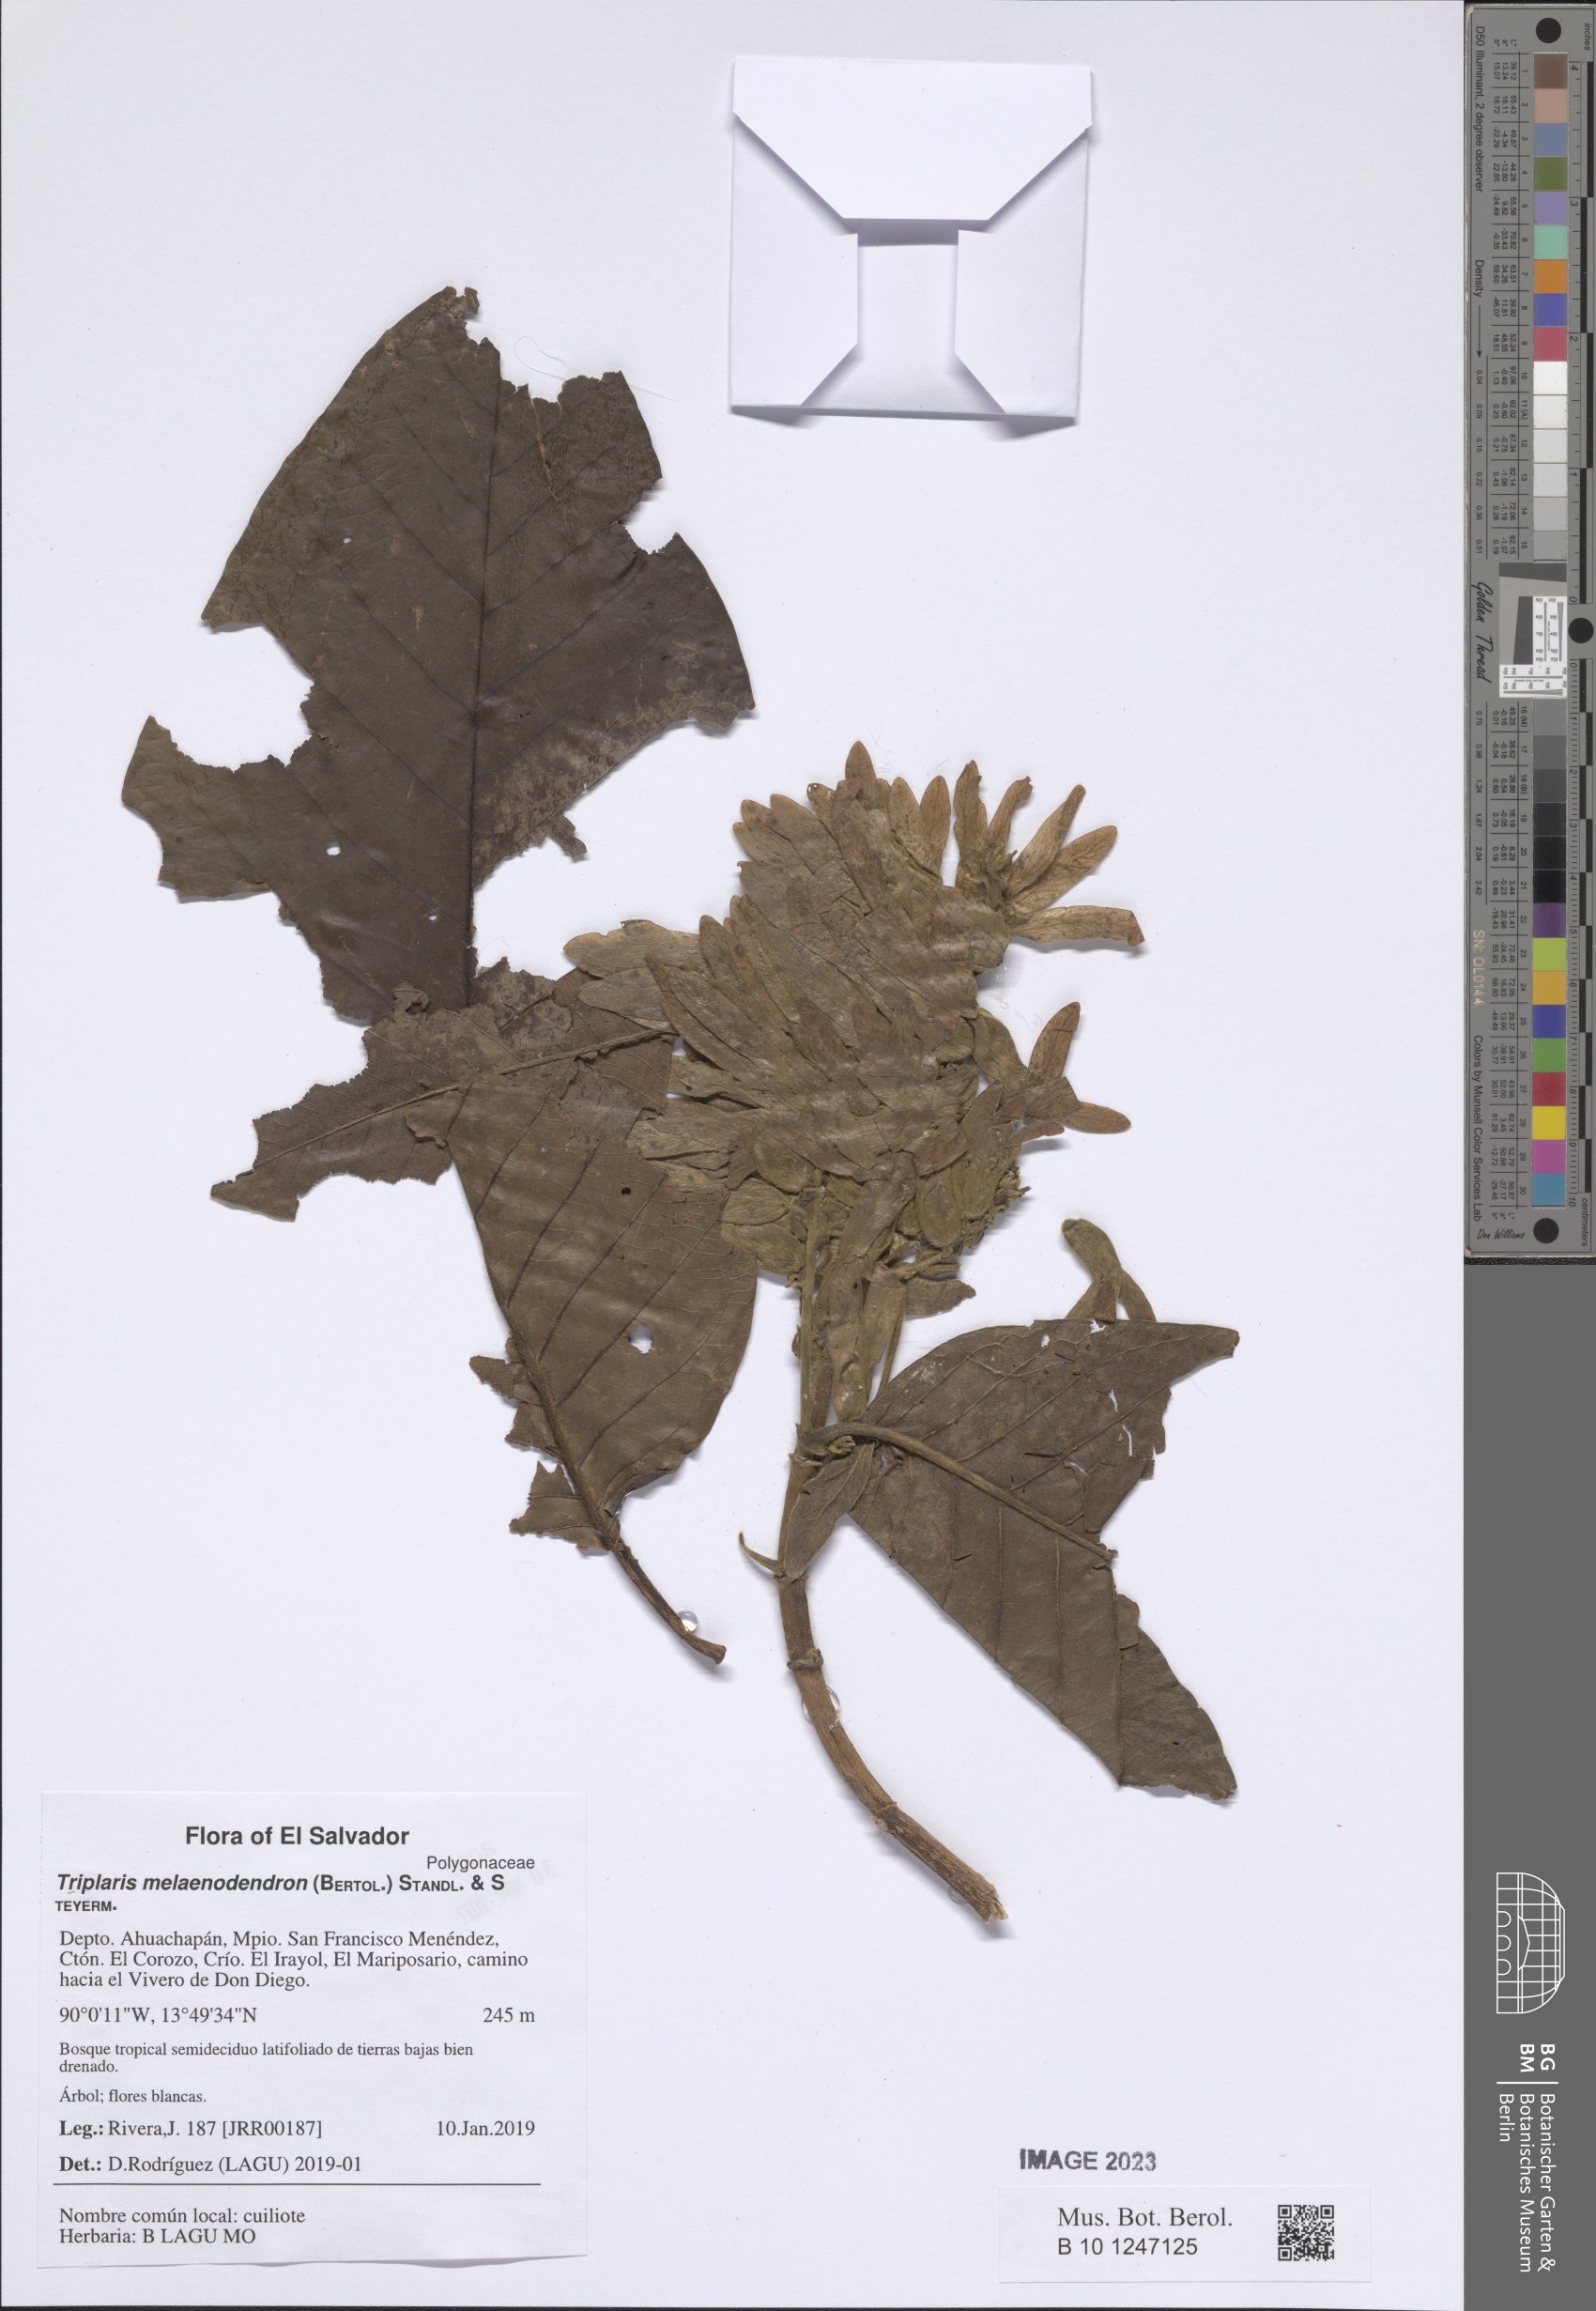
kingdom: Plantae
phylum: Tracheophyta
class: Magnoliopsida
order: Caryophyllales
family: Polygonaceae
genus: Triplaris
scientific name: Triplaris melaenodendron
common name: Long john
